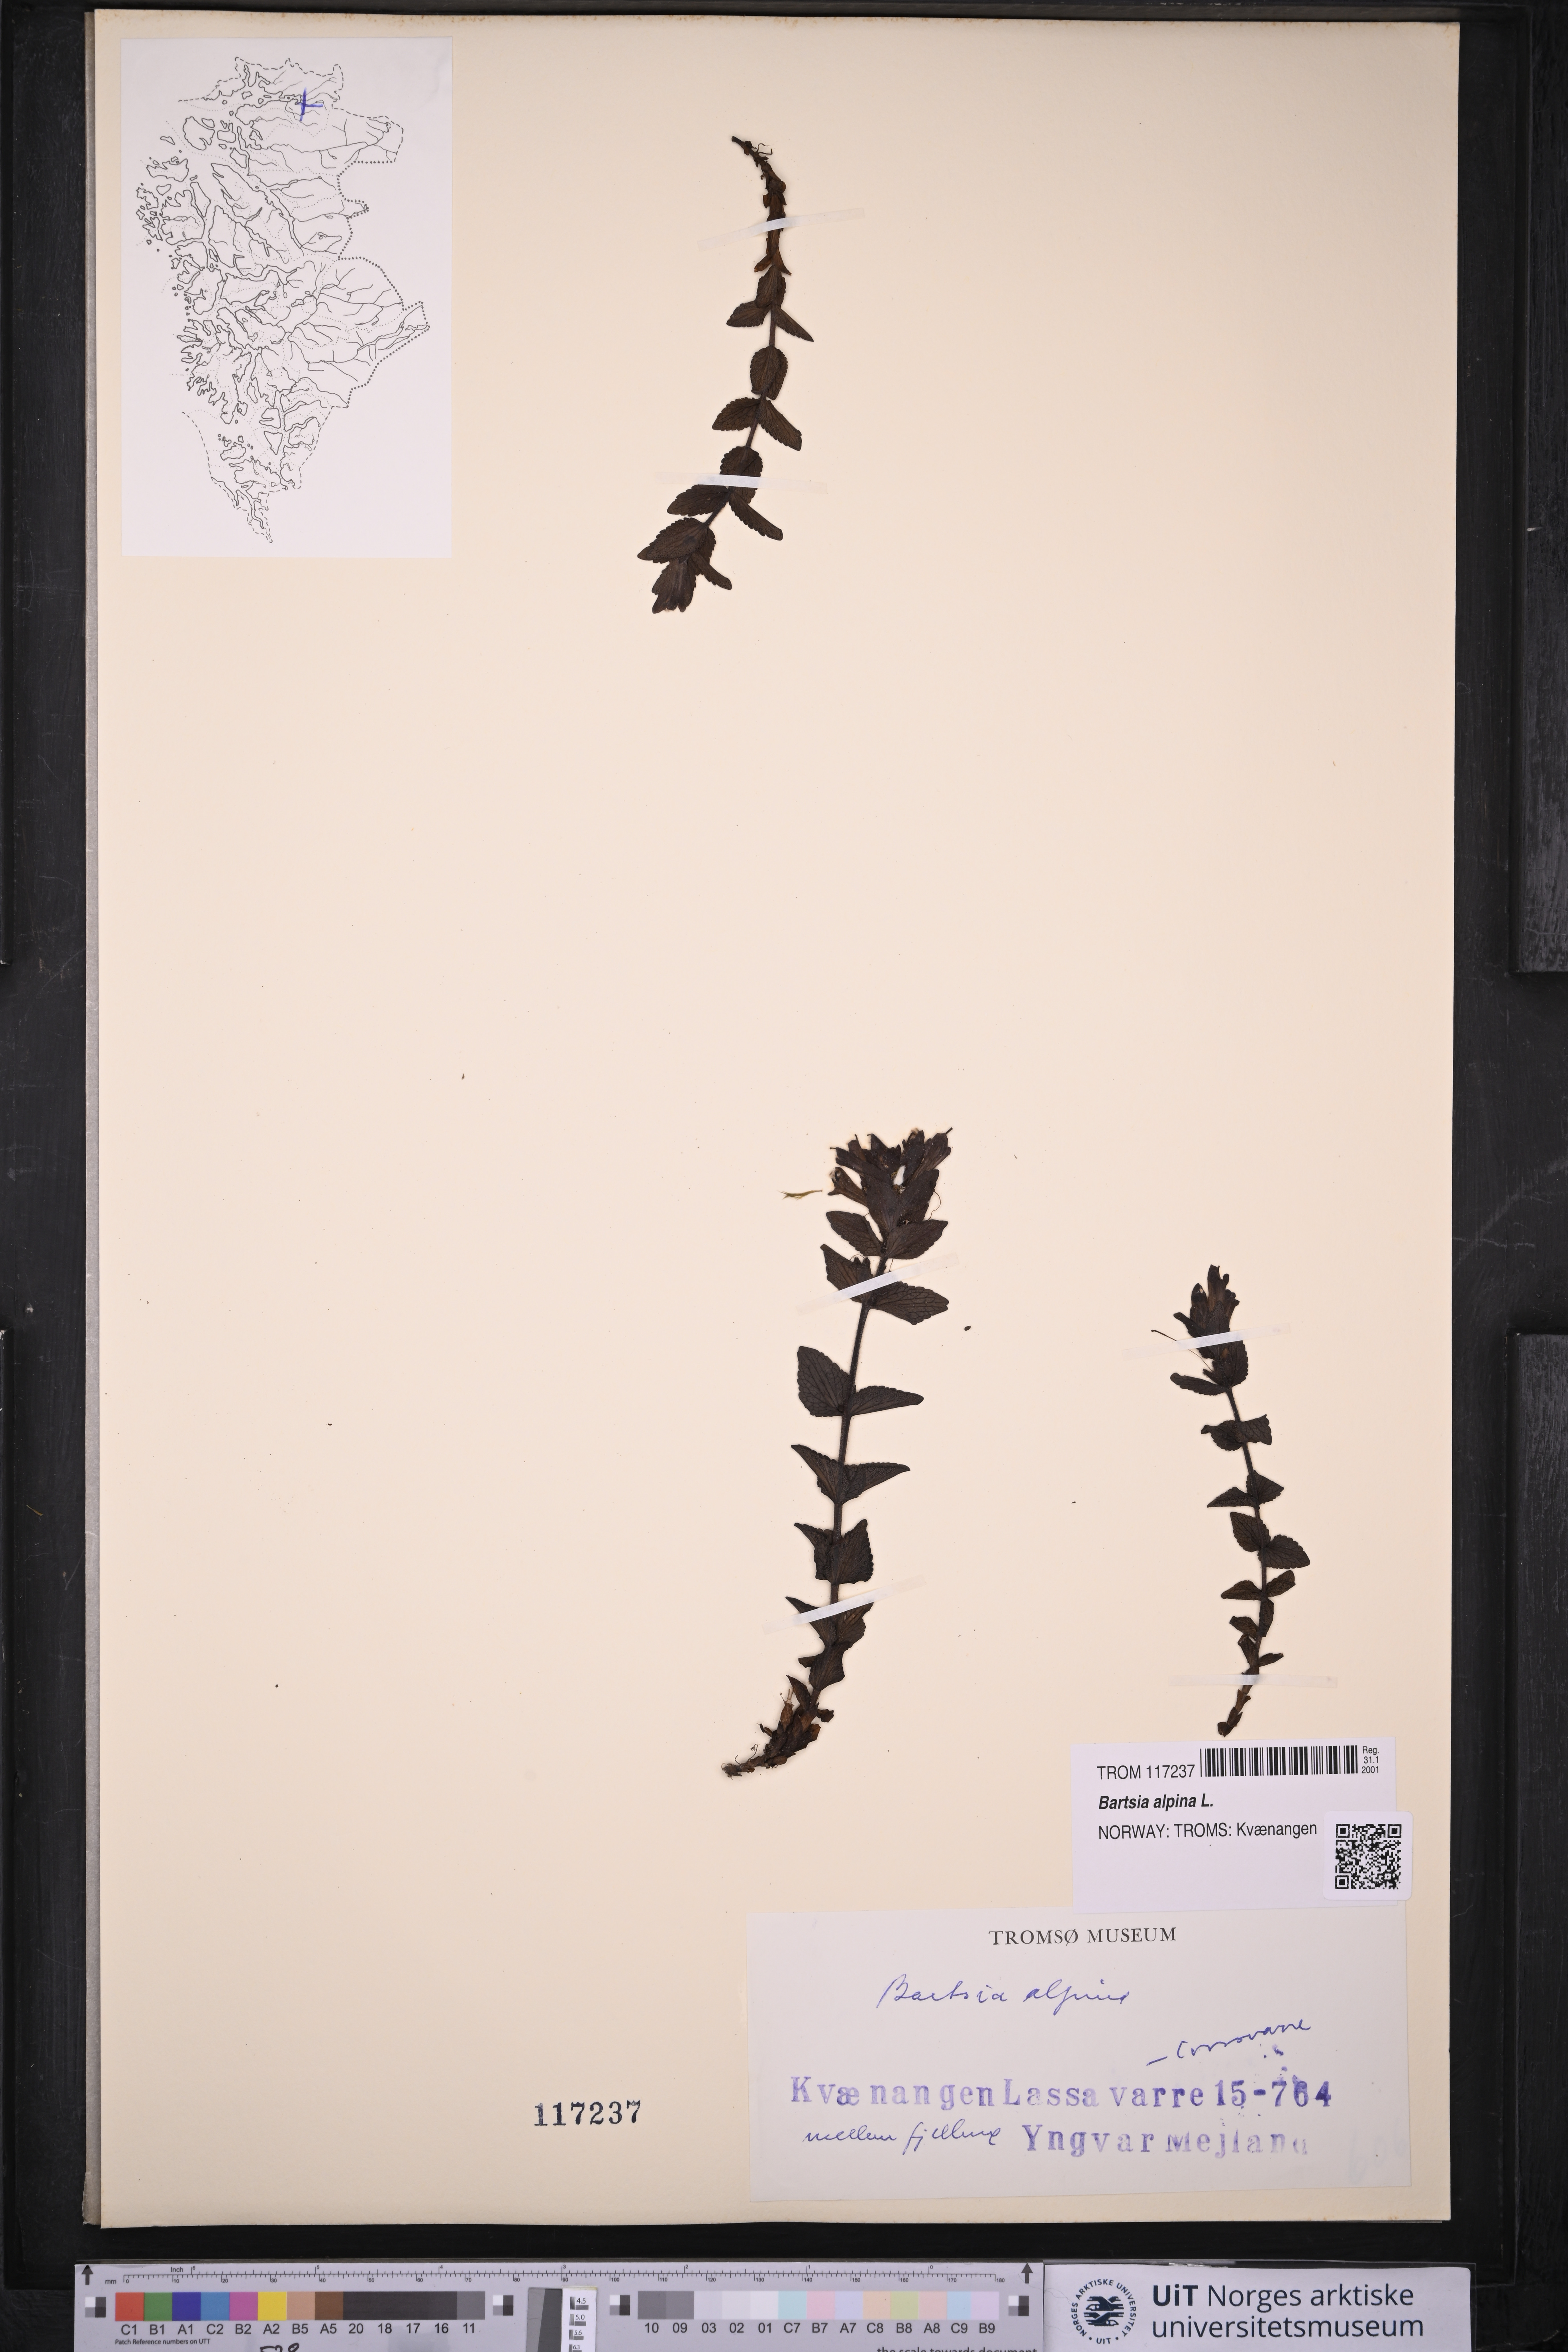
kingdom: Plantae
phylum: Tracheophyta
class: Magnoliopsida
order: Lamiales
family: Orobanchaceae
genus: Bartsia
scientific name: Bartsia alpina
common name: Alpine bartsia
